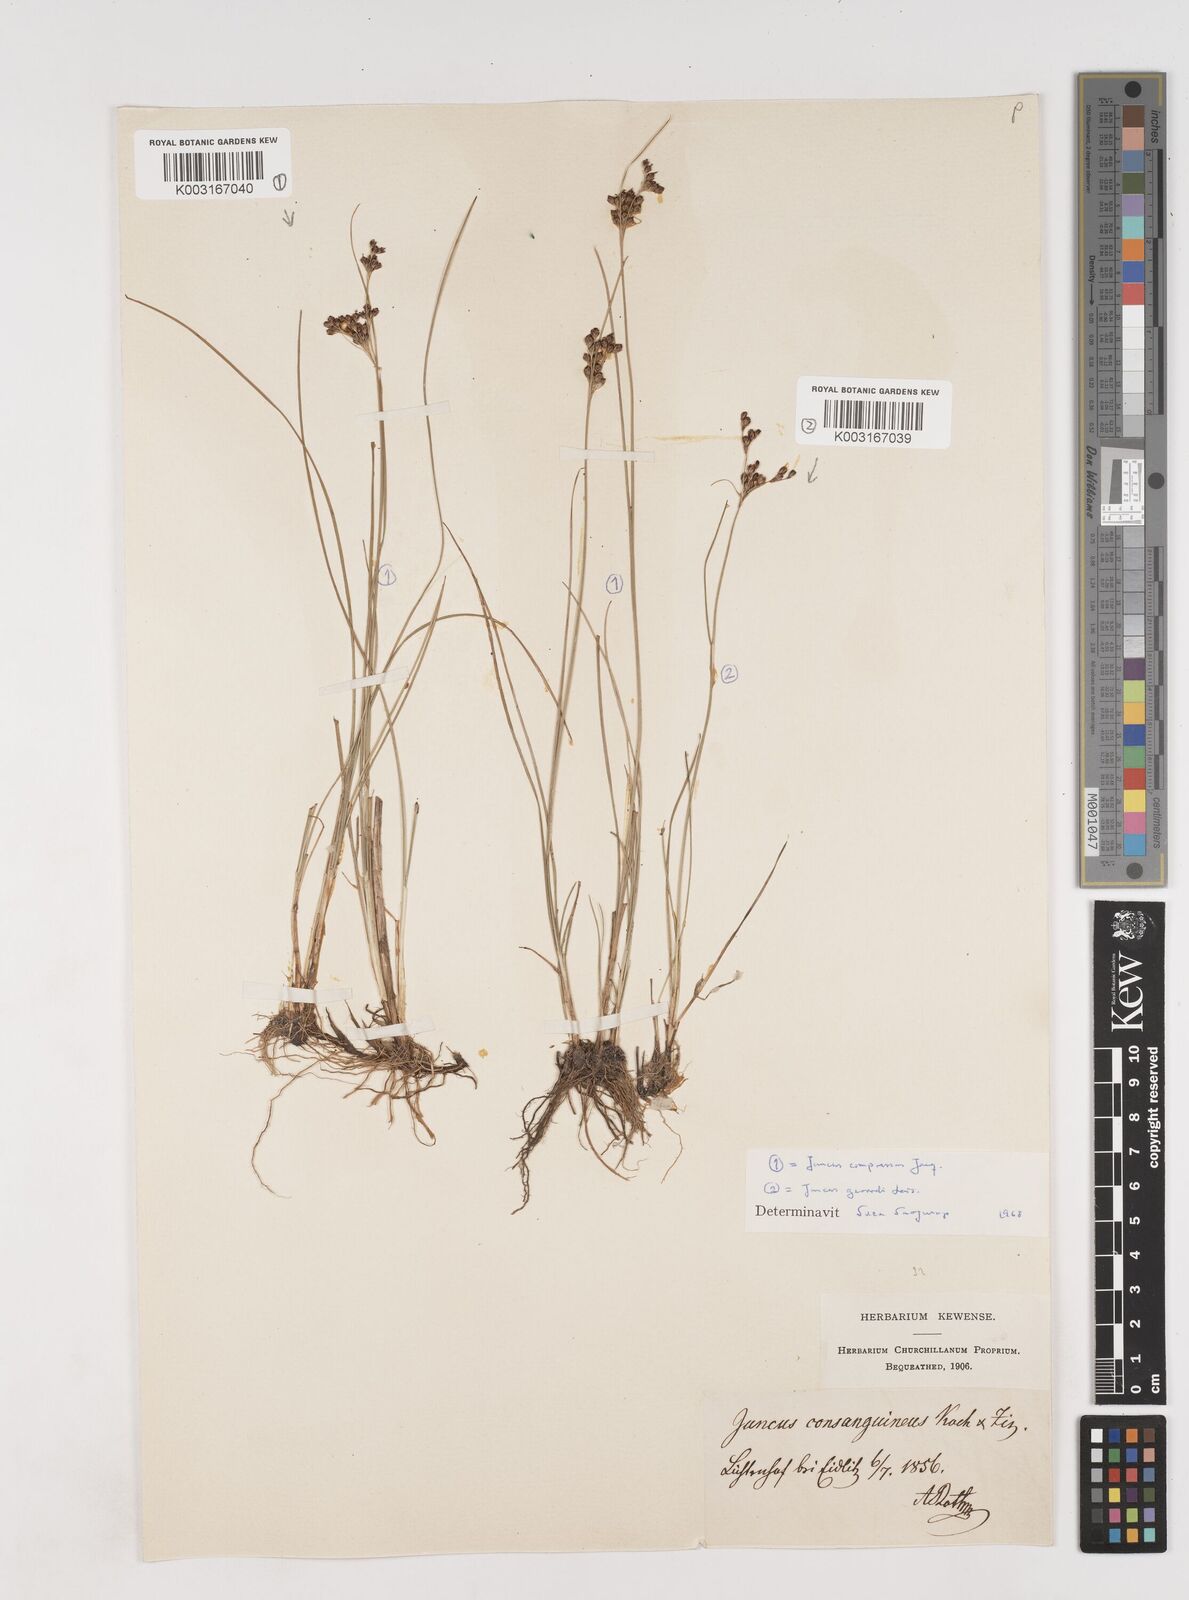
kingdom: Plantae
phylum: Tracheophyta
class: Liliopsida
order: Poales
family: Juncaceae
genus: Juncus
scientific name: Juncus gerardi
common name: Saltmarsh rush
